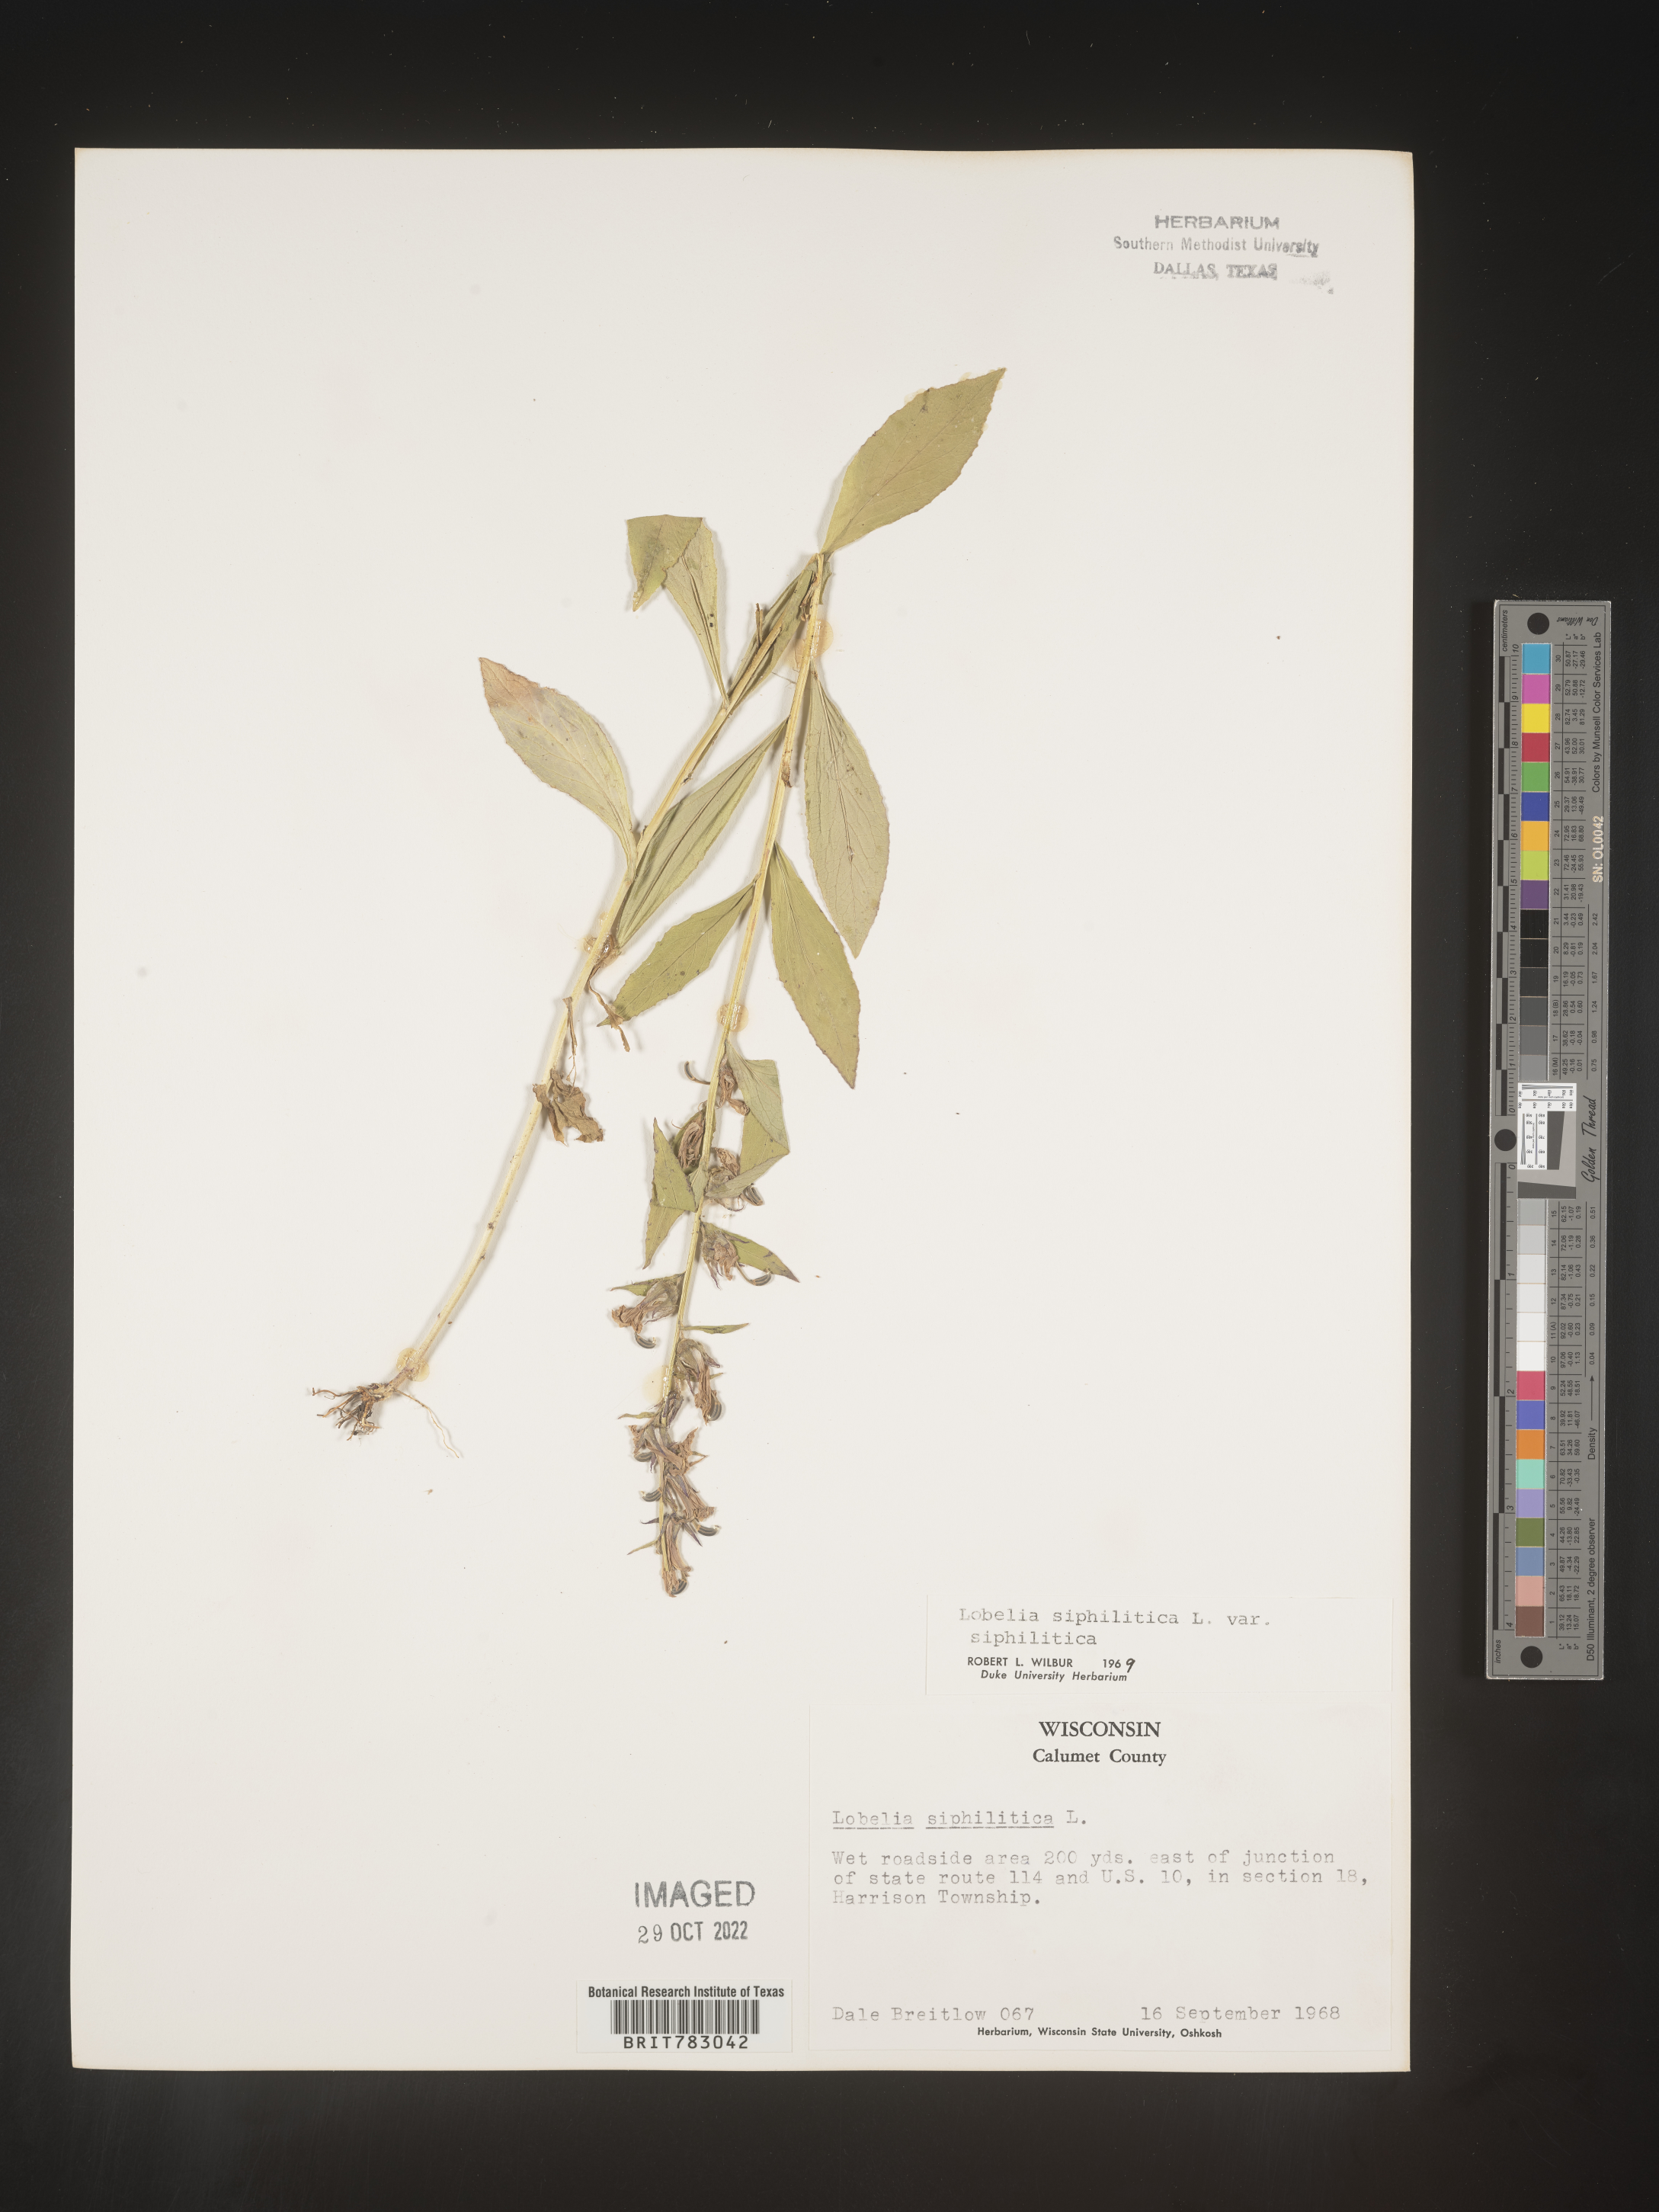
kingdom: Plantae
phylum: Tracheophyta
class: Magnoliopsida
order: Asterales
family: Campanulaceae
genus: Lobelia
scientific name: Lobelia siphilitica
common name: Great lobelia
